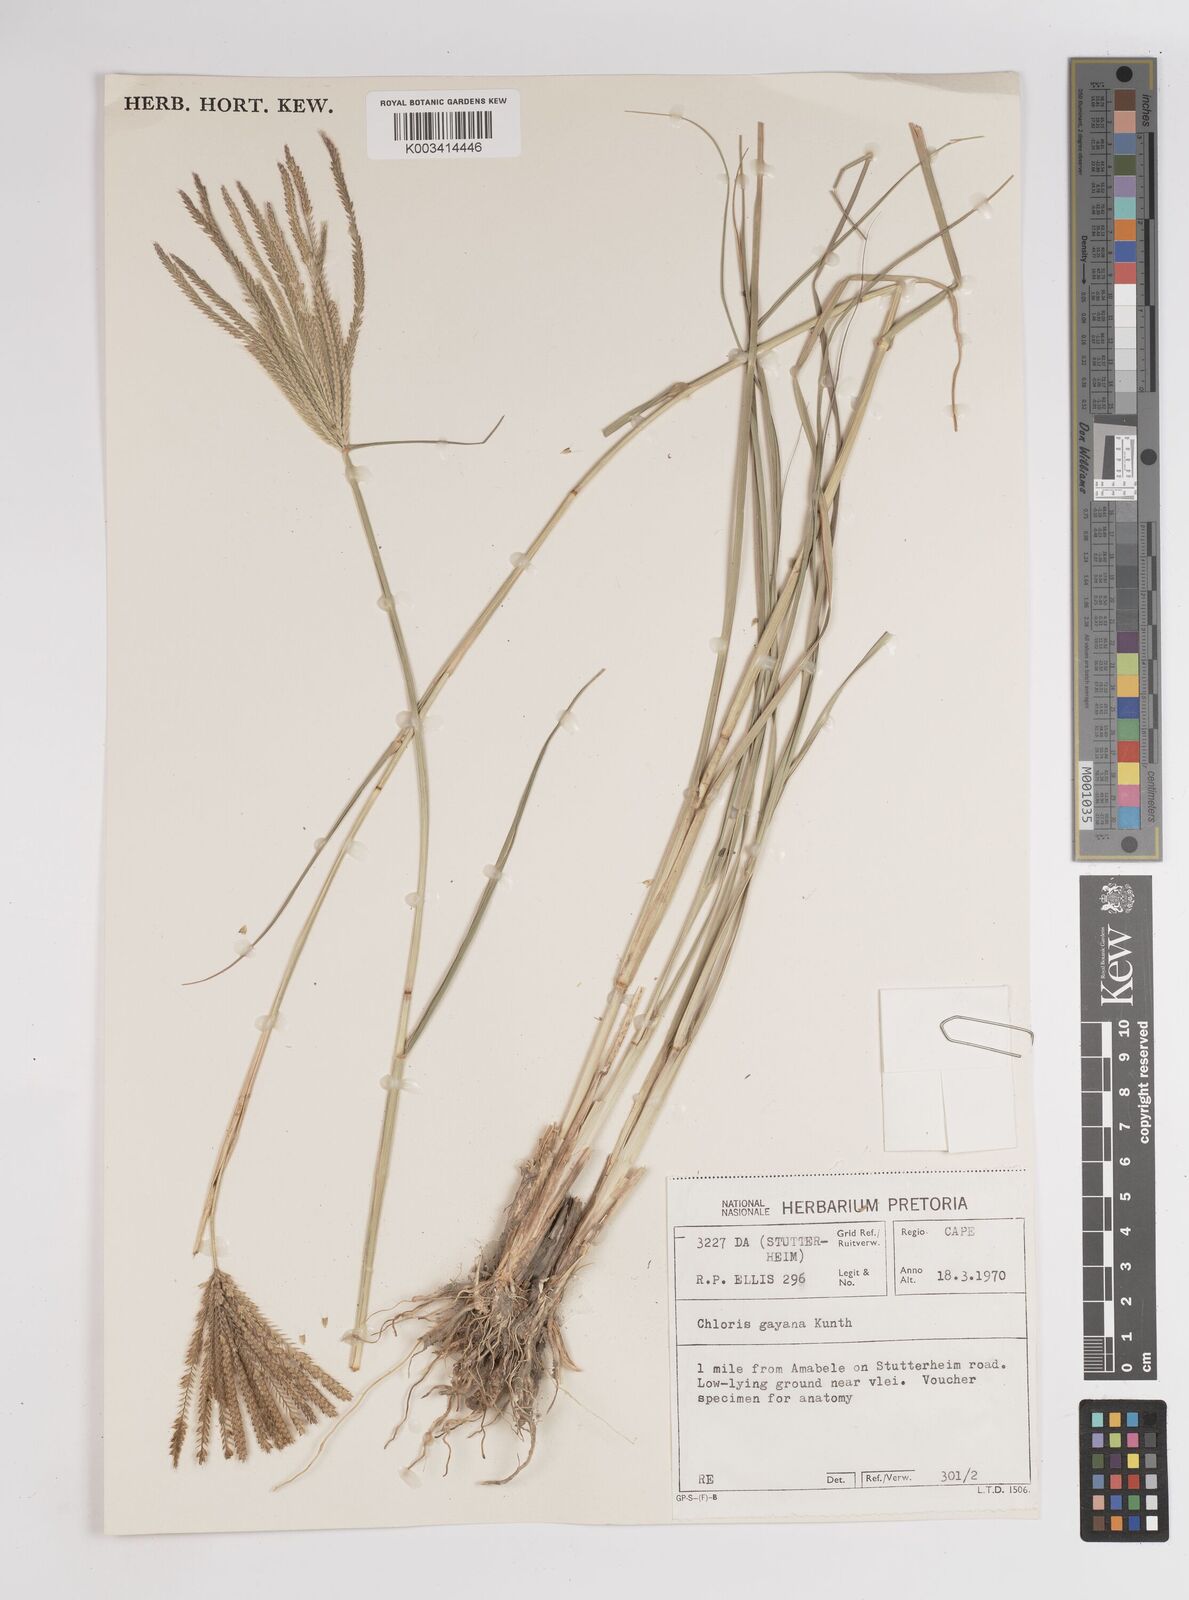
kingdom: Plantae
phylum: Tracheophyta
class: Liliopsida
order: Poales
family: Poaceae
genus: Chloris
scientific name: Chloris gayana
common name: Rhodes grass
